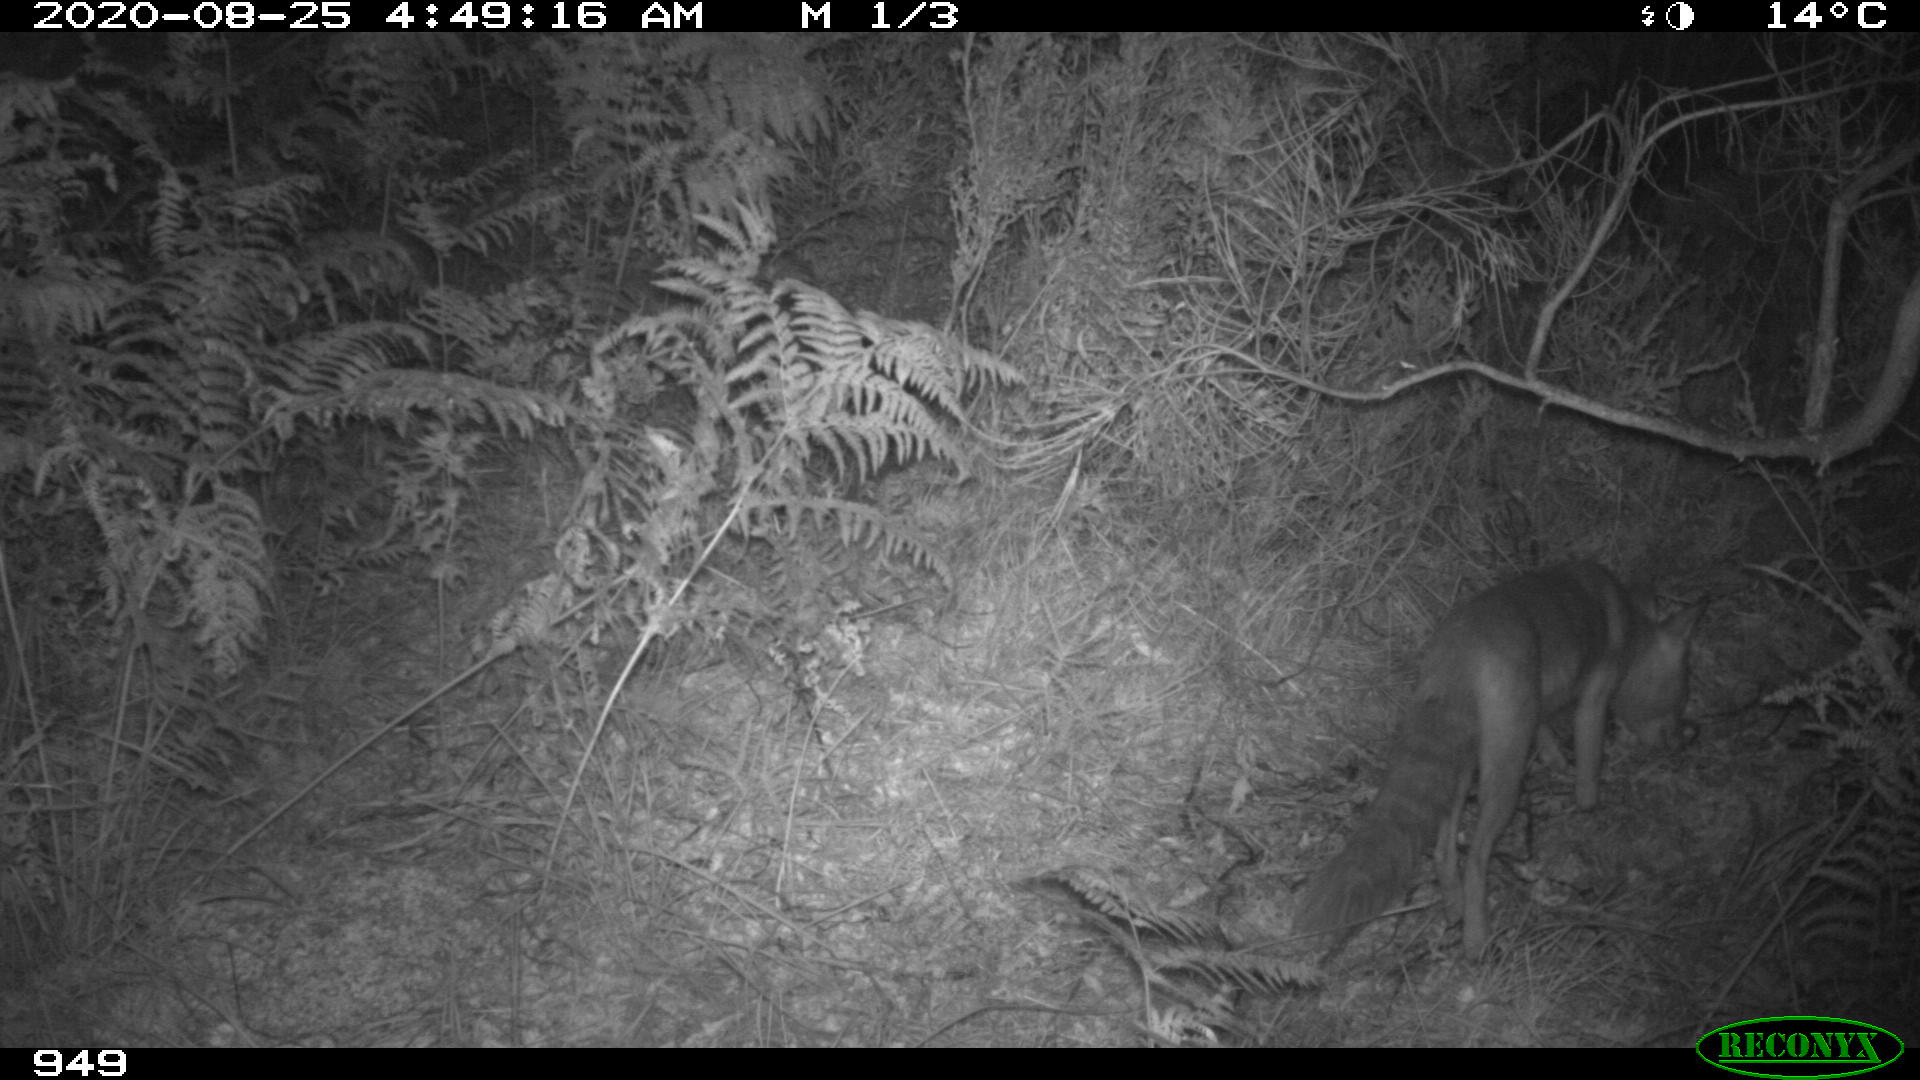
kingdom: Animalia
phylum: Chordata
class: Mammalia
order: Carnivora
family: Canidae
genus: Vulpes
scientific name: Vulpes vulpes
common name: Red fox
